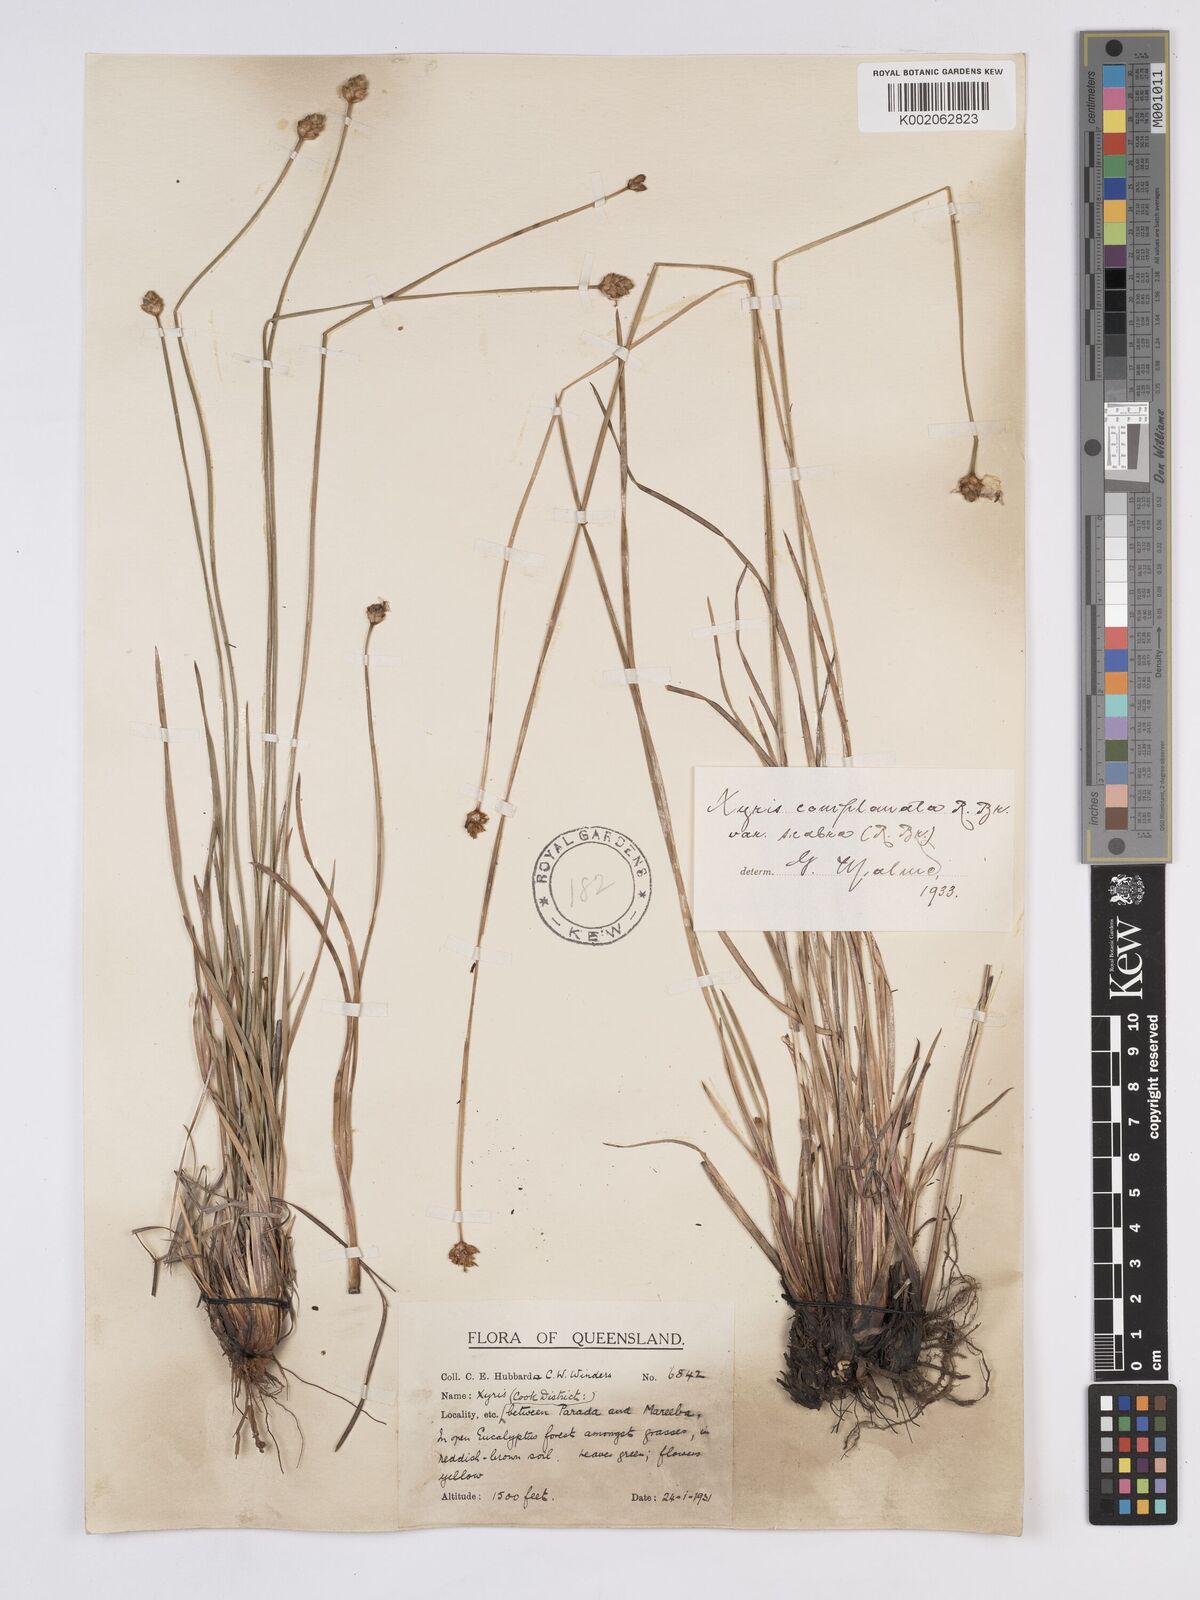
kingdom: Plantae
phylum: Tracheophyta
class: Liliopsida
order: Poales
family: Xyridaceae
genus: Xyris
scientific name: Xyris complanata
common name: Hawai'i yelloweyed grass
